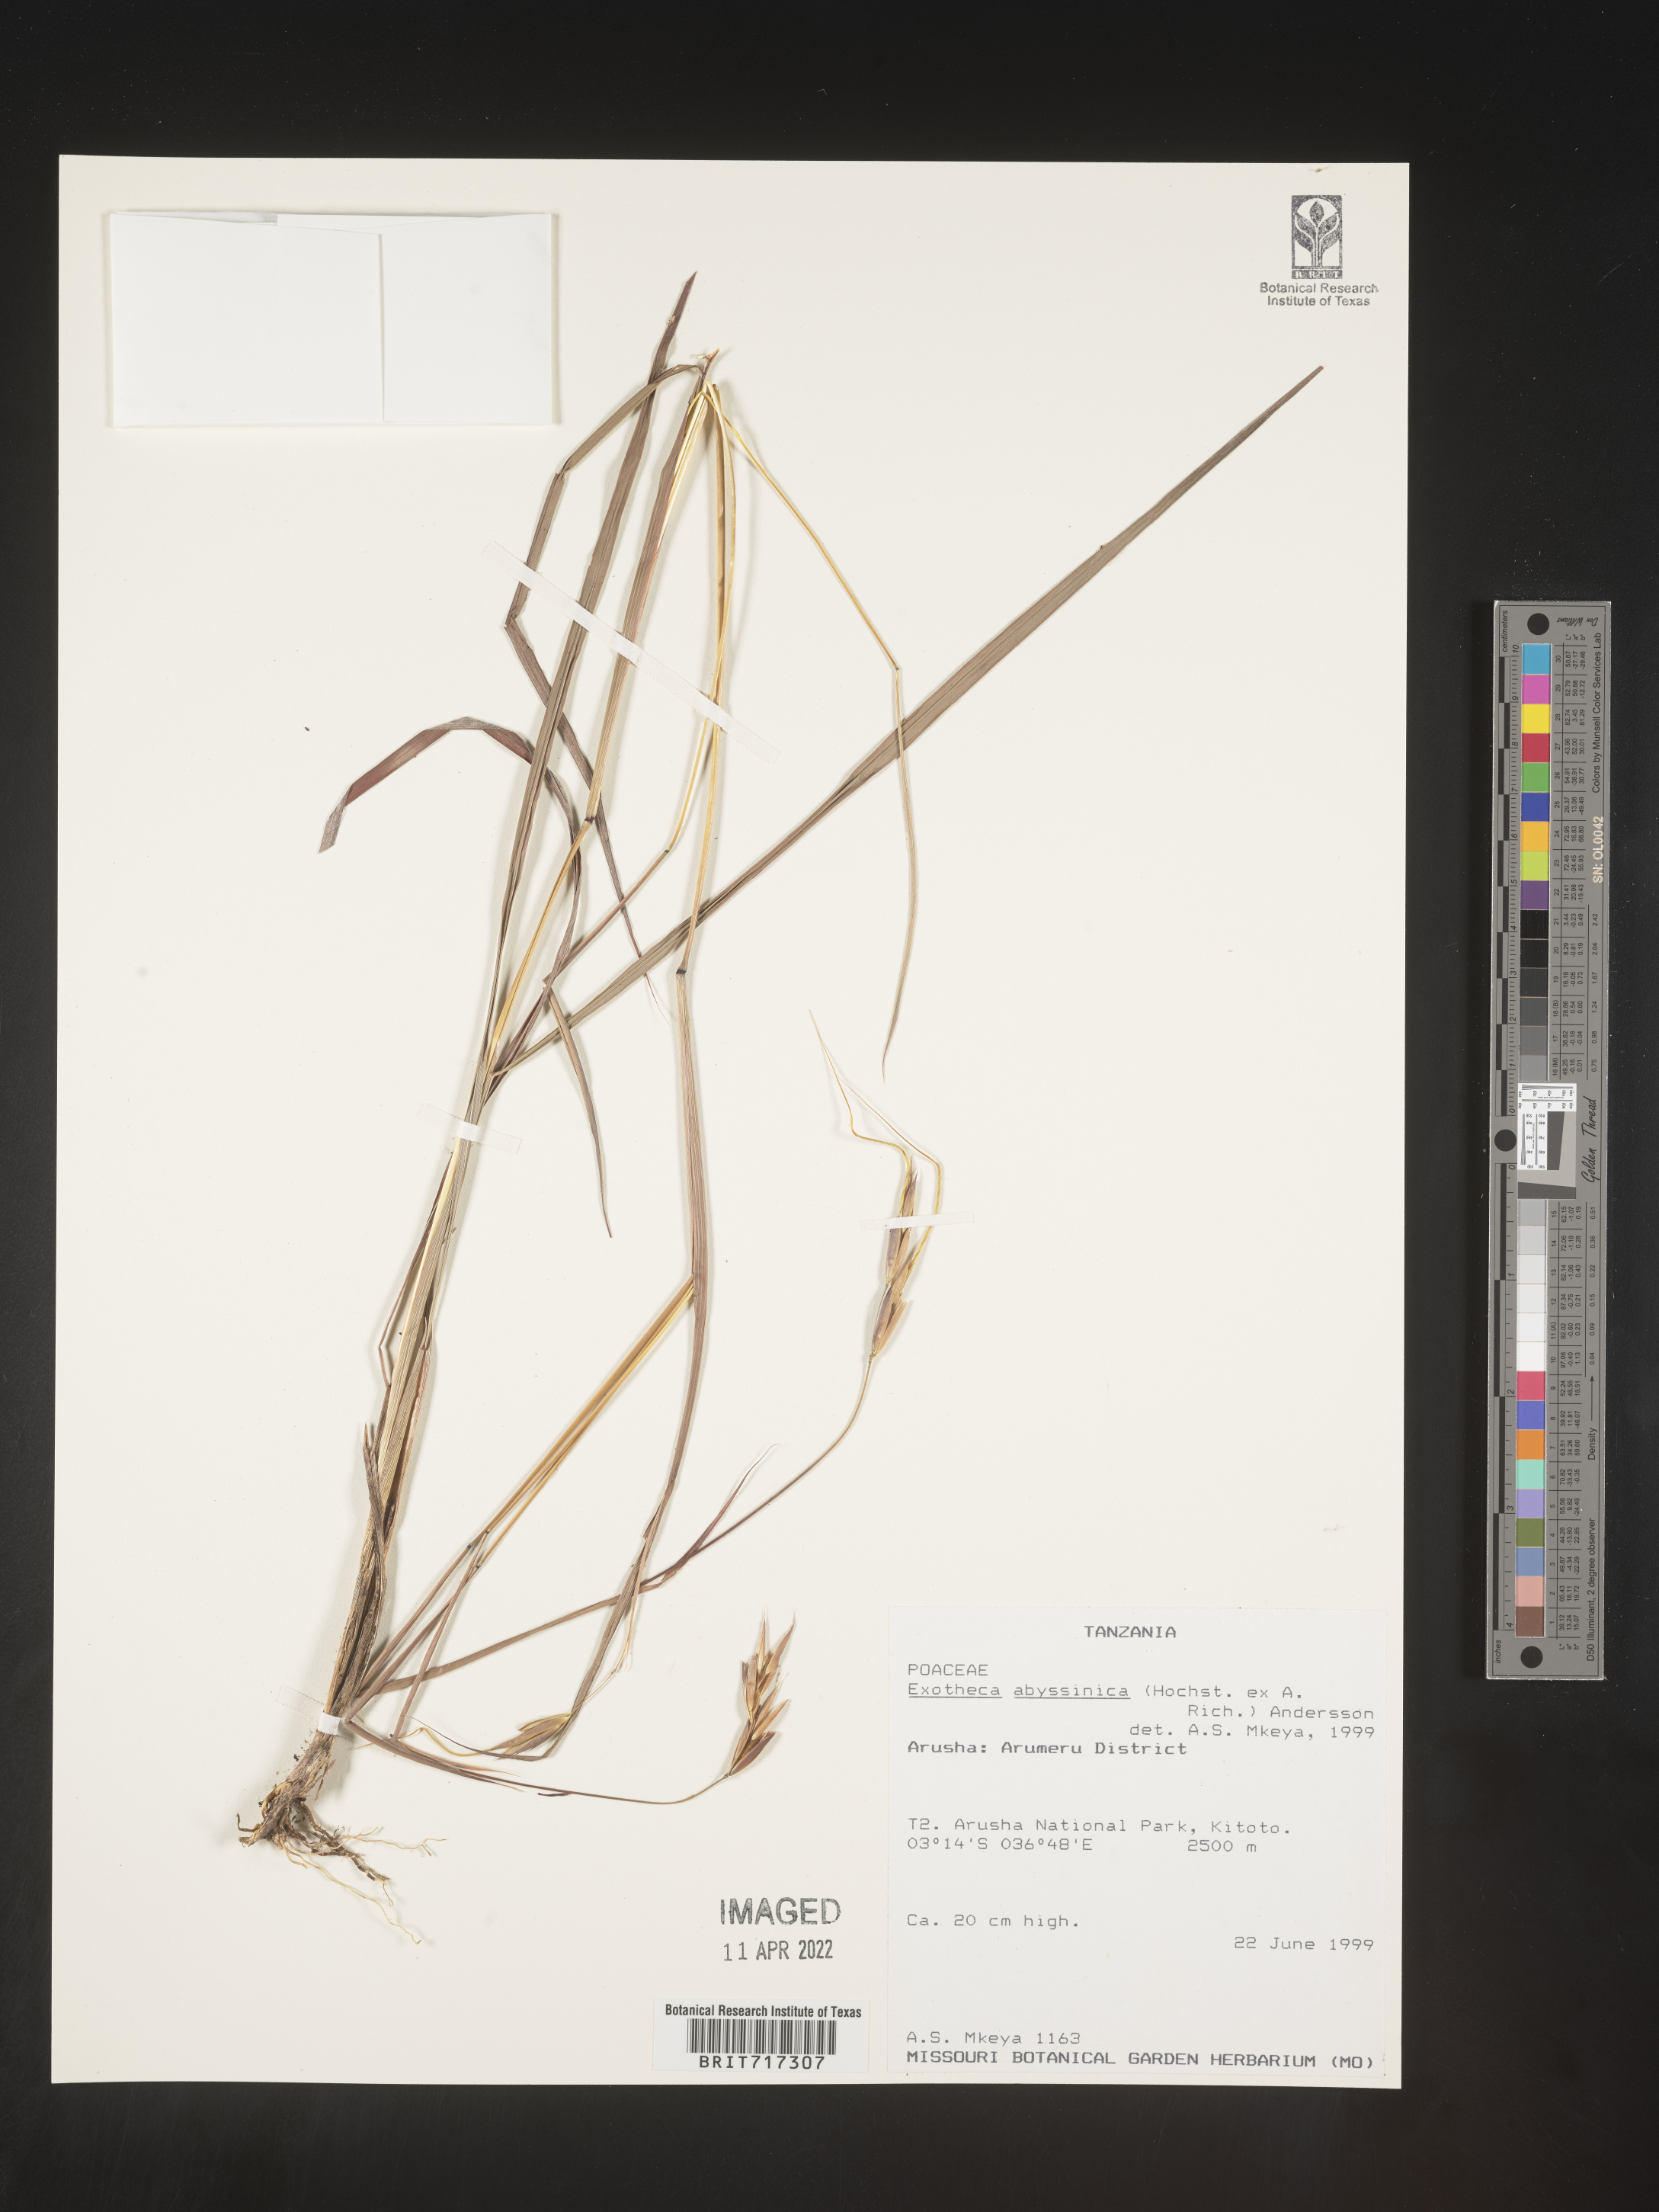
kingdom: Plantae
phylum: Tracheophyta
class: Liliopsida
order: Poales
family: Poaceae
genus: Exotheca
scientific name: Exotheca
